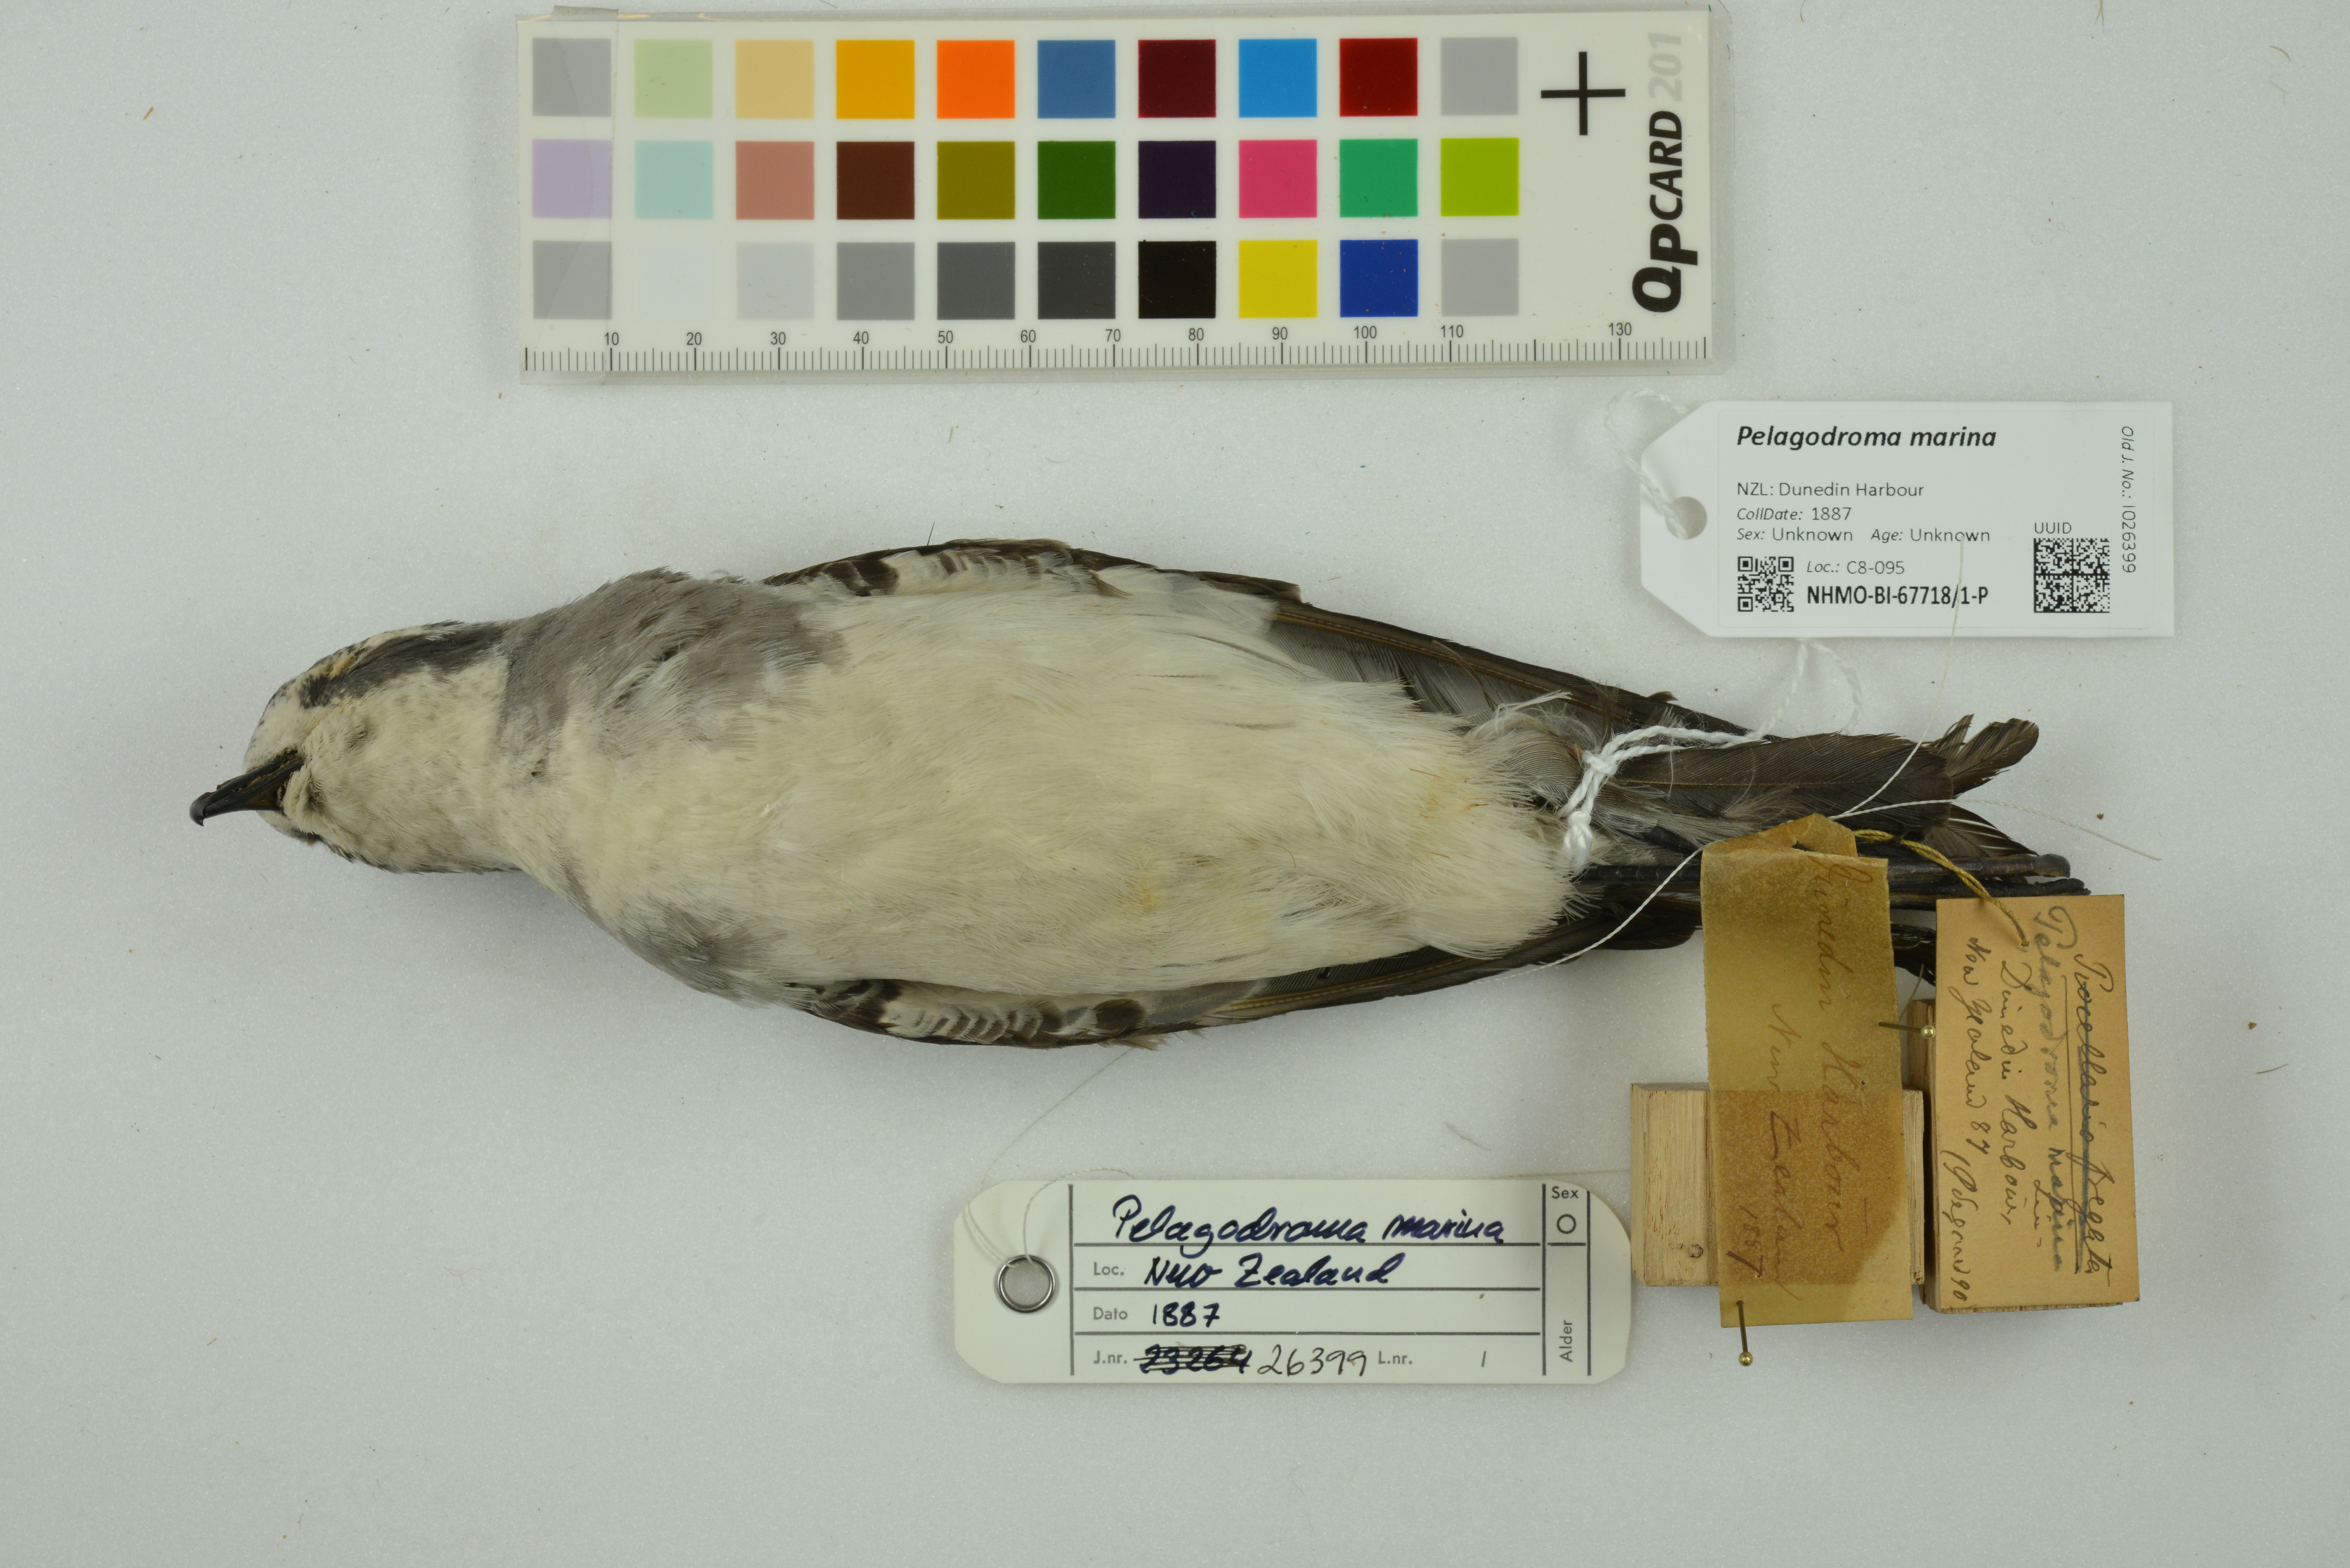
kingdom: Animalia
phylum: Chordata
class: Aves
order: Procellariiformes
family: Hydrobatidae
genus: Pelagodroma
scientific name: Pelagodroma marina
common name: White-faced storm-petrel
